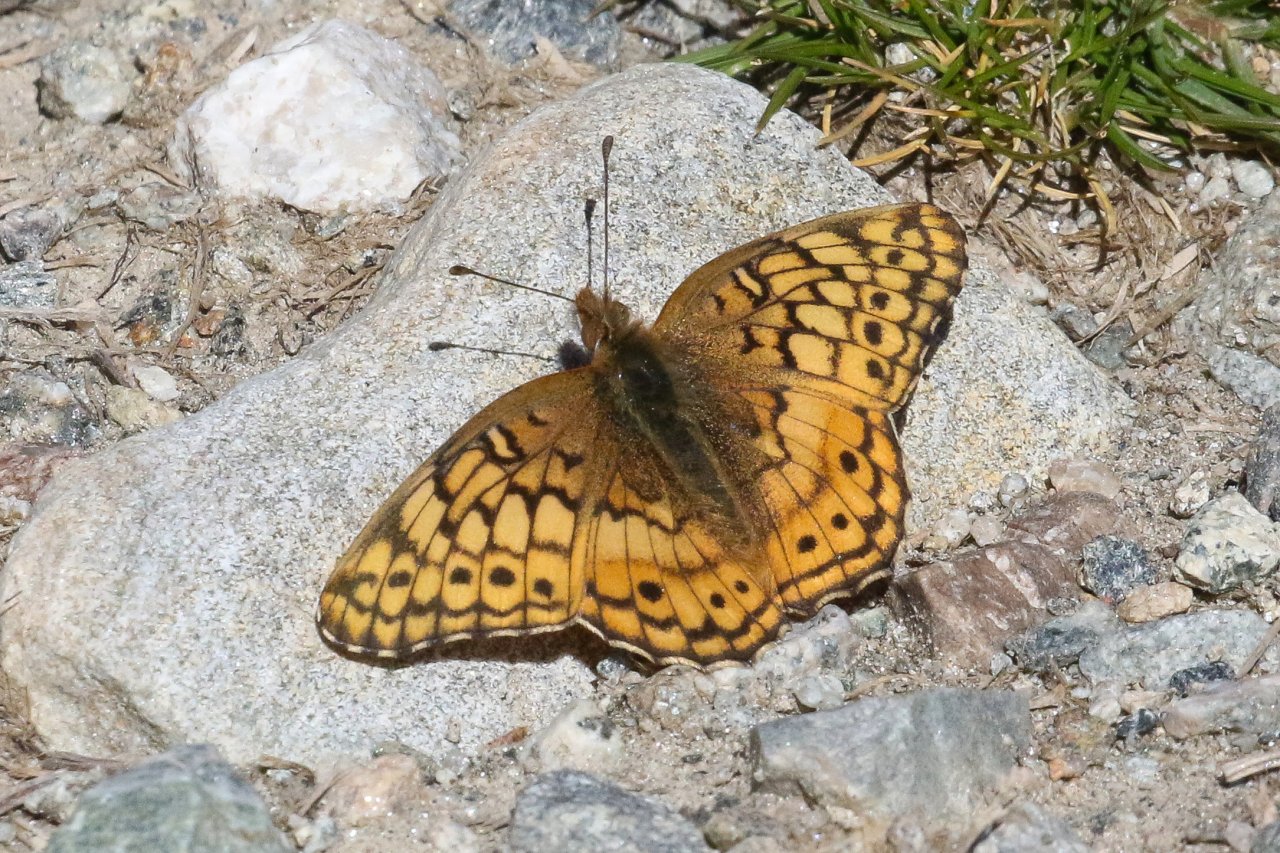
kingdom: Animalia
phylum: Arthropoda
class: Insecta
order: Lepidoptera
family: Nymphalidae
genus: Euptoieta
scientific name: Euptoieta claudia
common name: Variegated Fritillary
